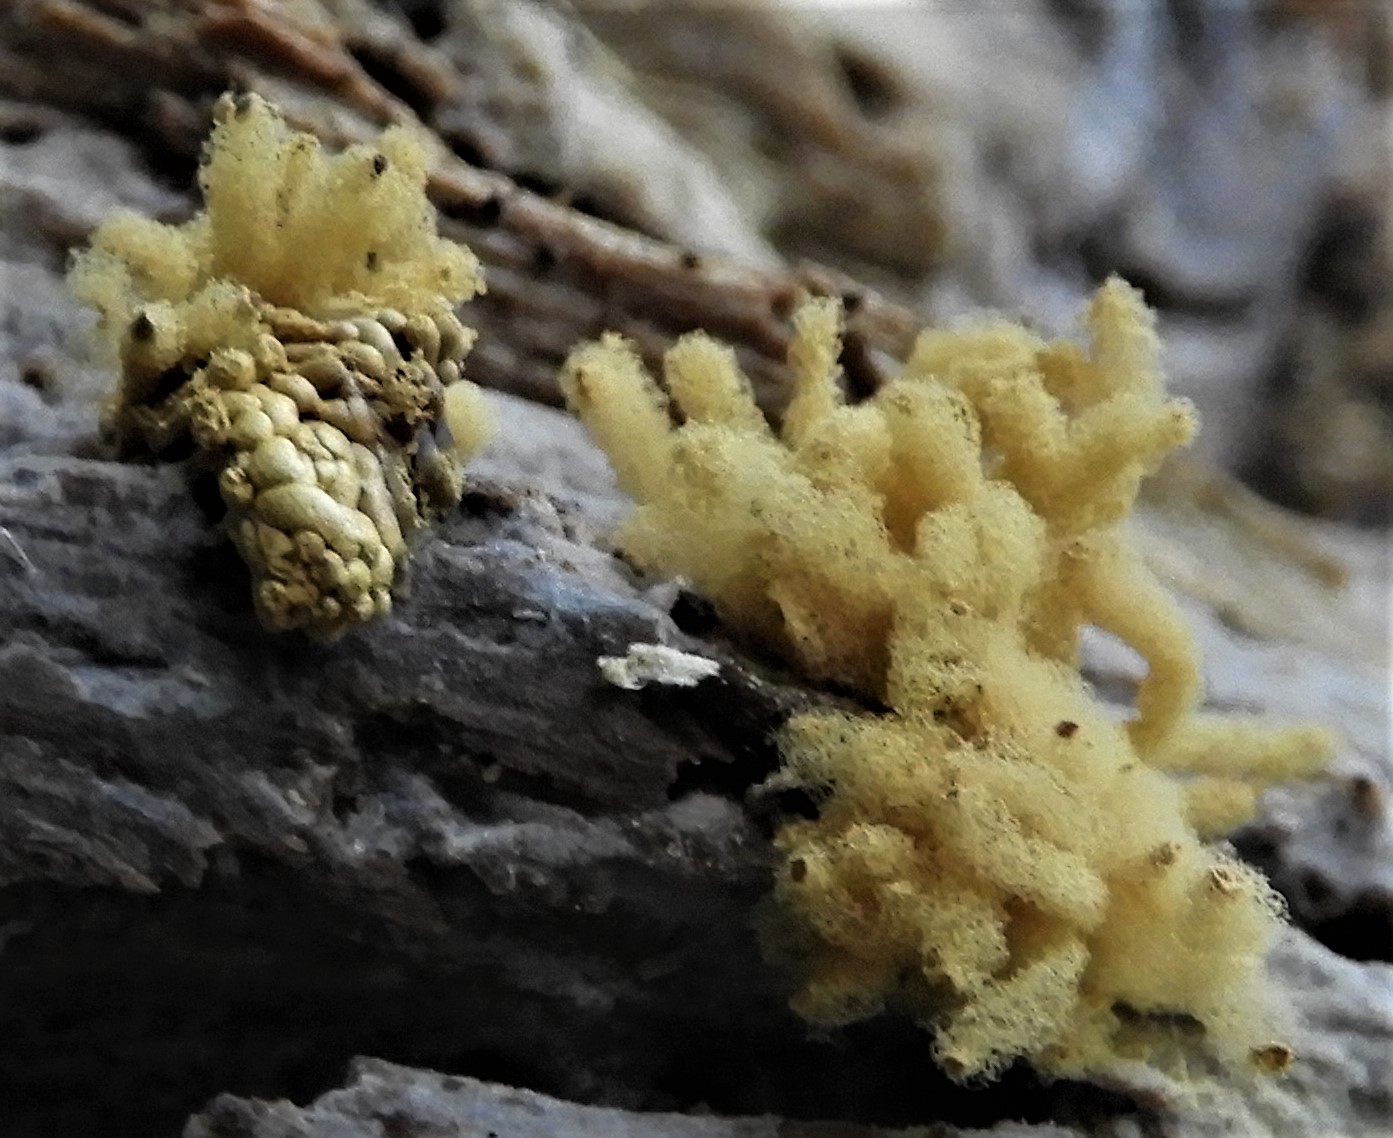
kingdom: Protozoa
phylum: Mycetozoa
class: Myxomycetes
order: Trichiales
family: Arcyriaceae
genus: Arcyria
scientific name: Arcyria obvelata
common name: okkergul skålsvøb
